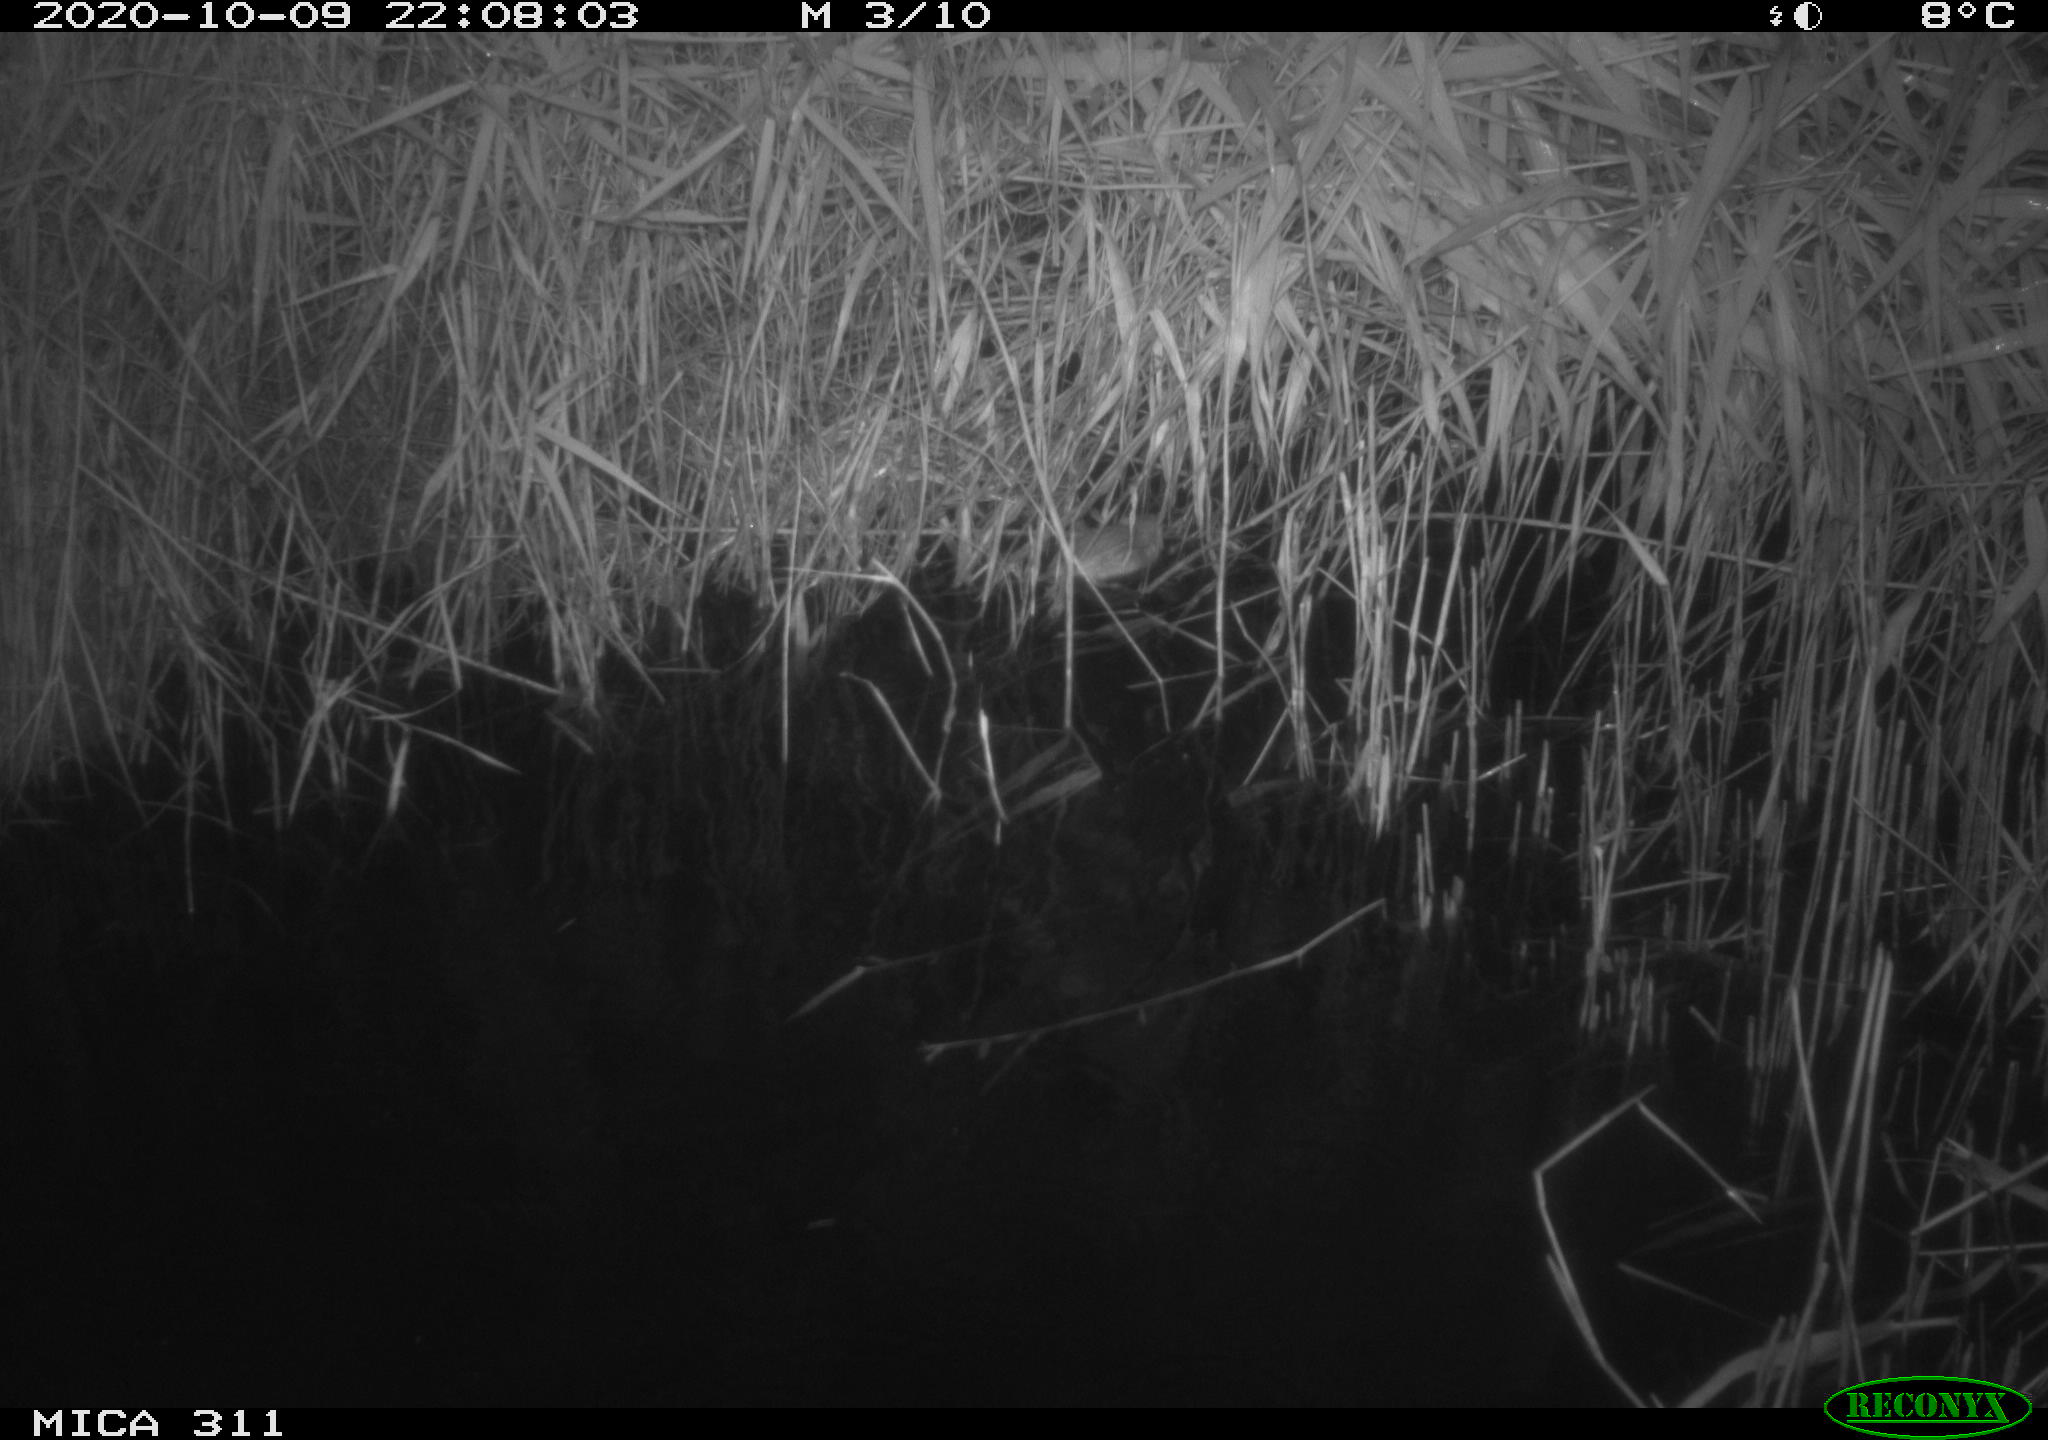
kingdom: Animalia
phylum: Chordata
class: Mammalia
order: Rodentia
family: Muridae
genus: Rattus
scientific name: Rattus norvegicus
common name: Brown rat
